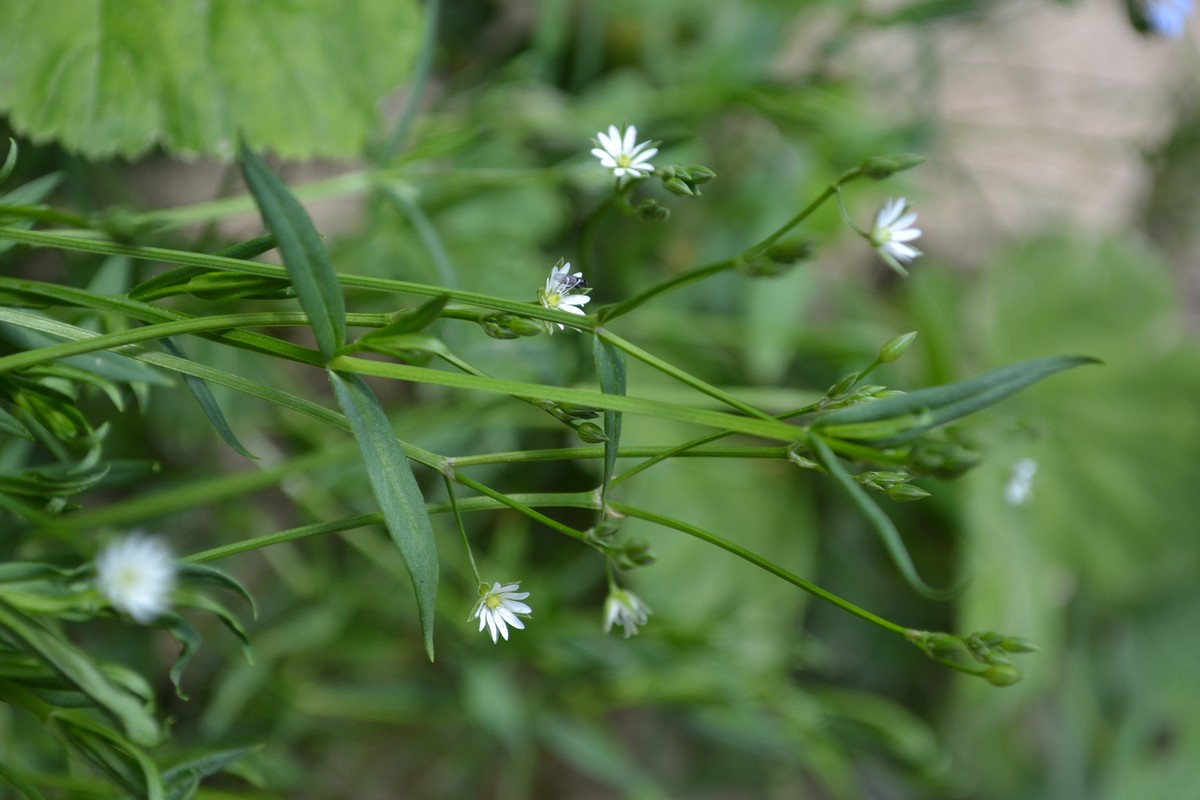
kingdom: Plantae
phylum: Tracheophyta
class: Magnoliopsida
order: Caryophyllales
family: Caryophyllaceae
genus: Rabelera
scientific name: Rabelera holostea
